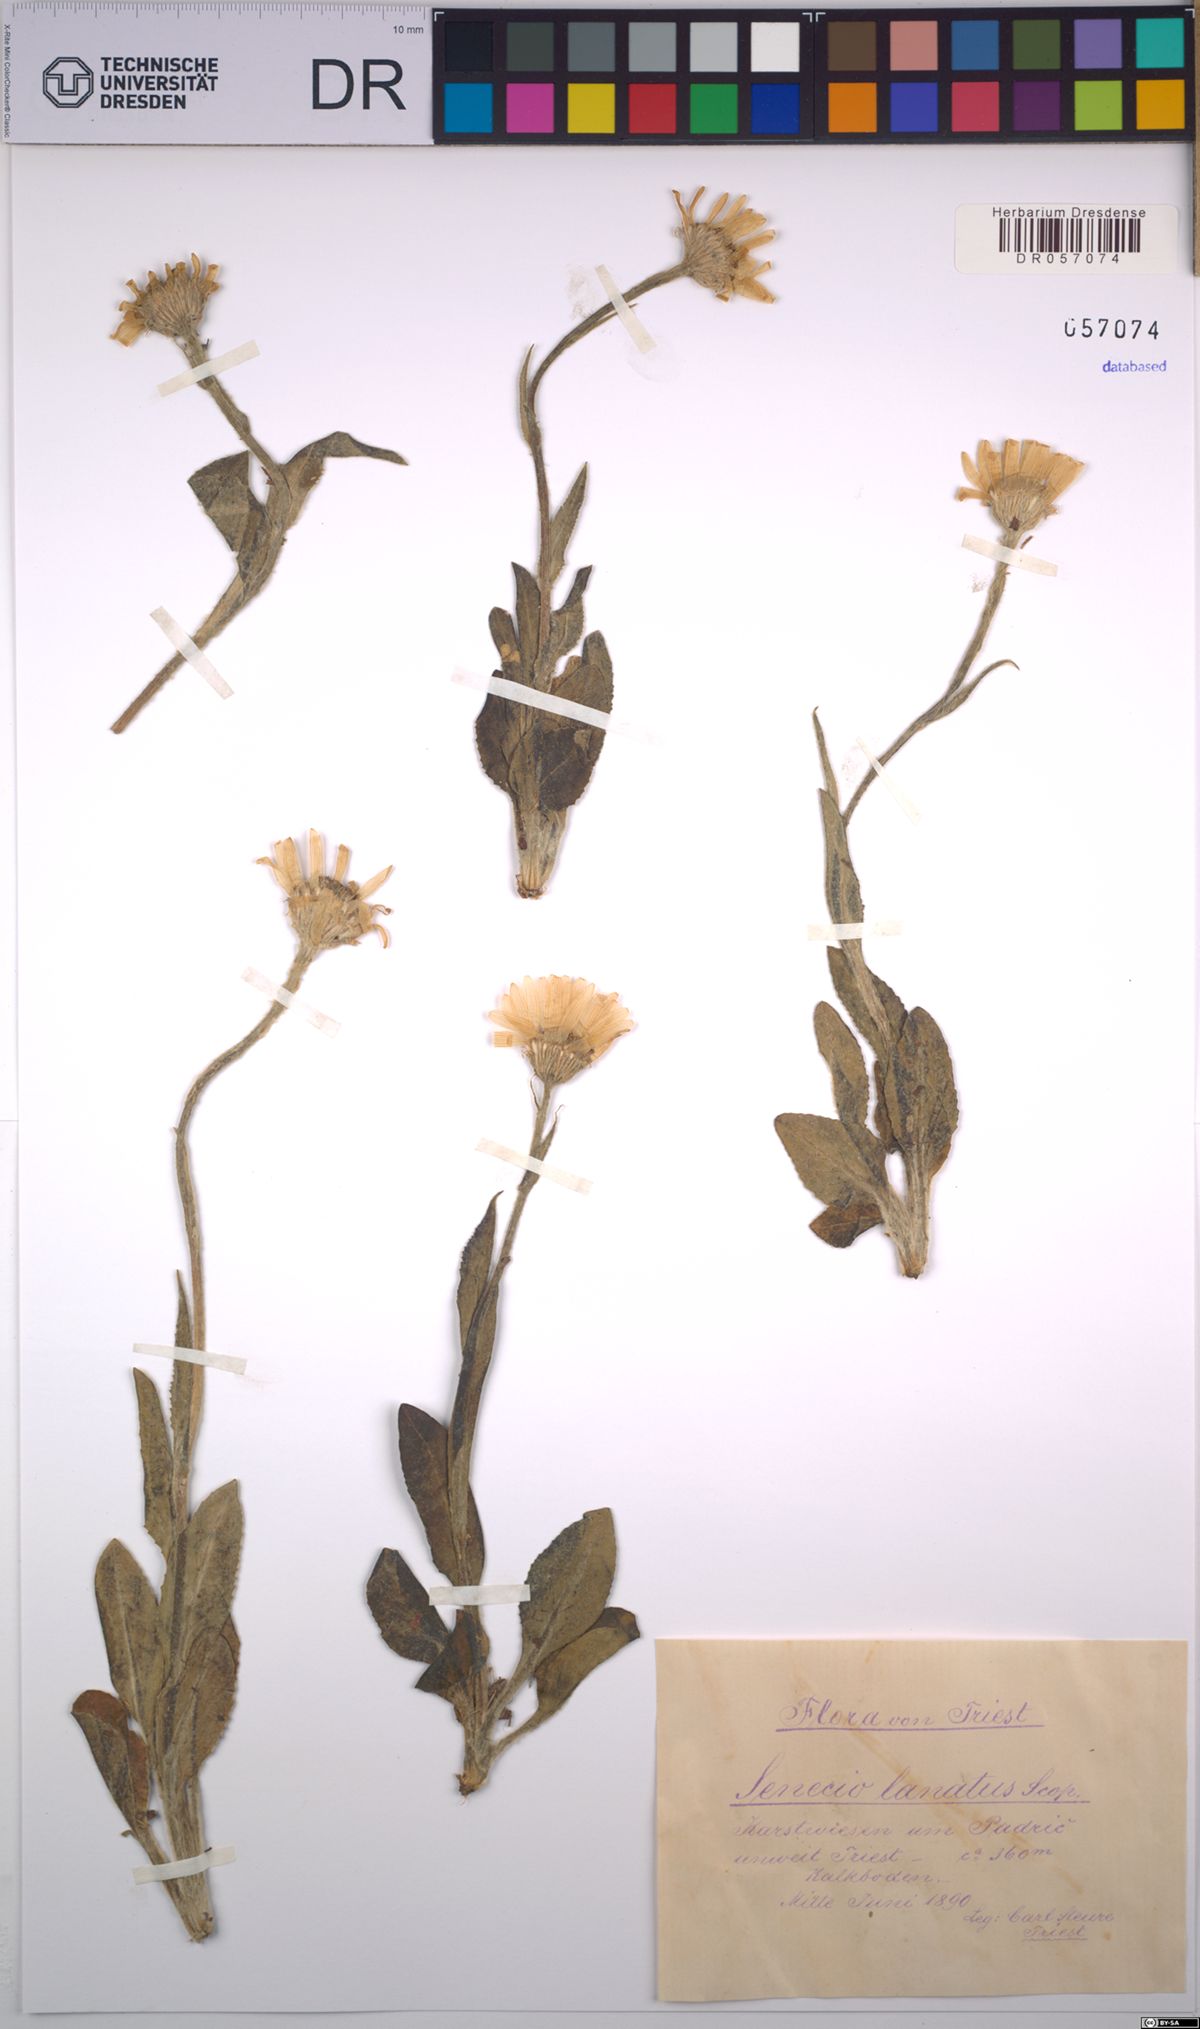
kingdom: Plantae
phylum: Tracheophyta
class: Magnoliopsida
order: Asterales
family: Asteraceae
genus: Senecio
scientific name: Senecio scopolii
